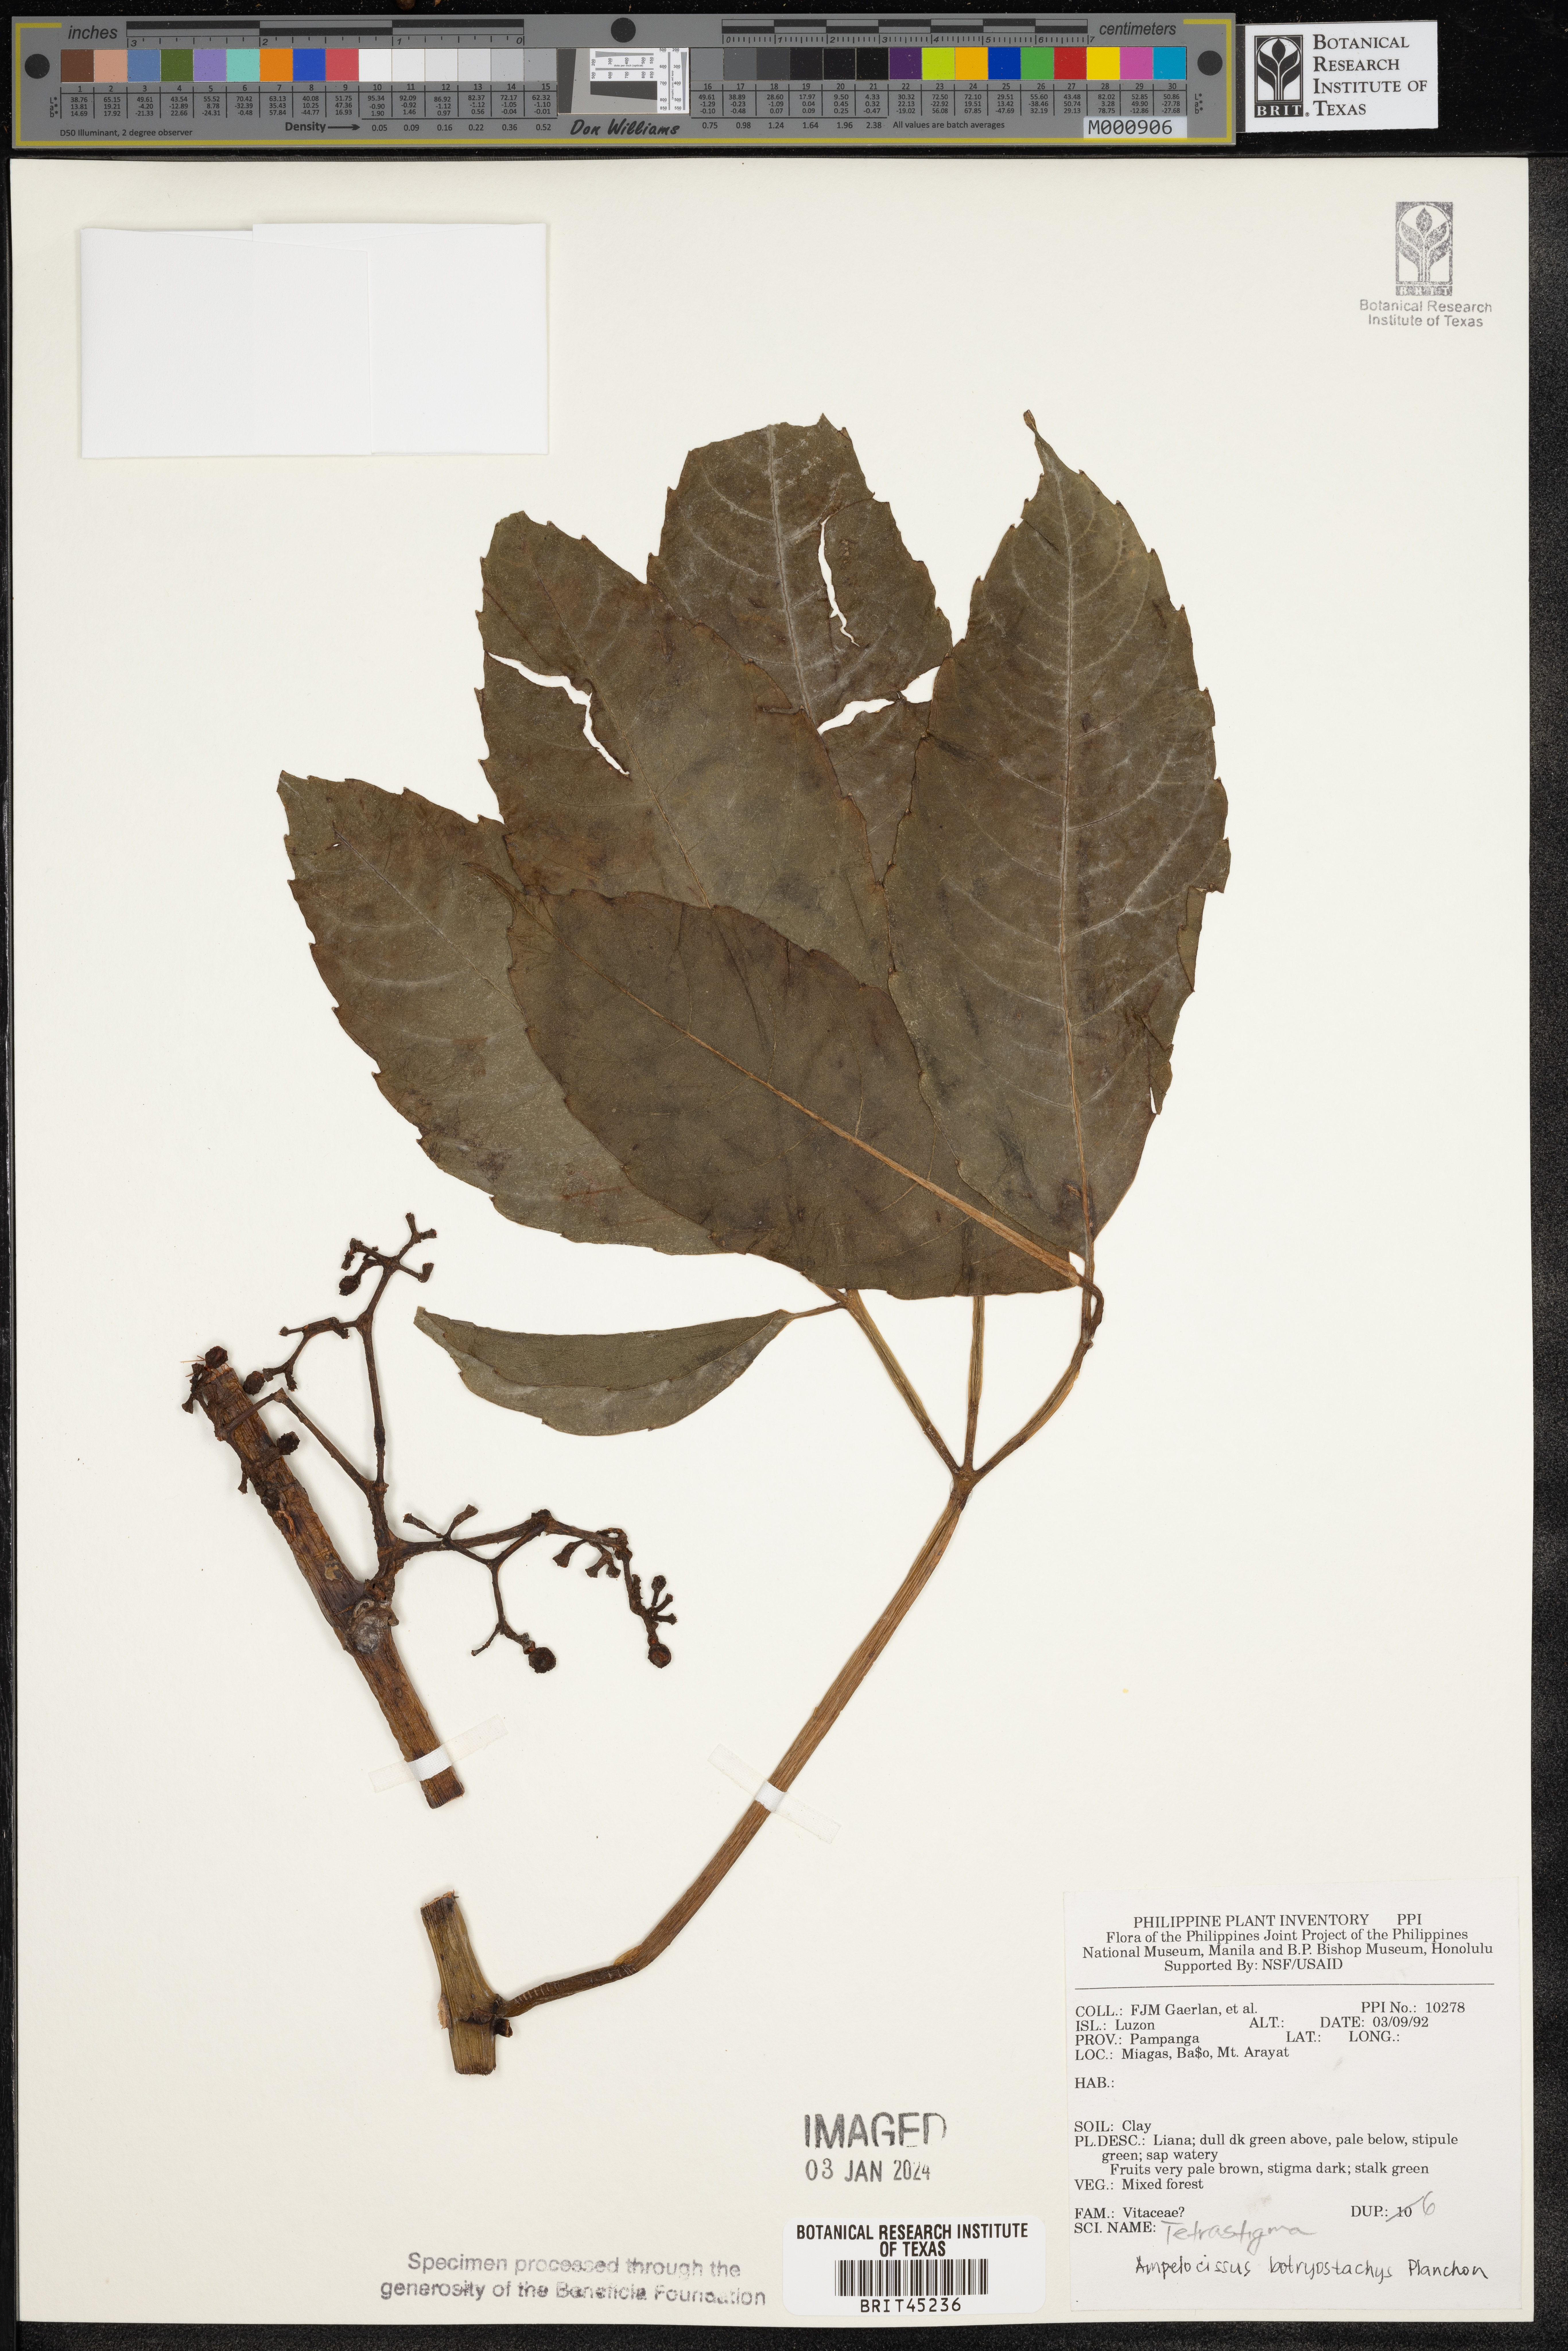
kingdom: Plantae
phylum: Tracheophyta
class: Magnoliopsida
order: Vitales
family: Vitaceae
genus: Ampelocissus
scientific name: Ampelocissus botryostachys
